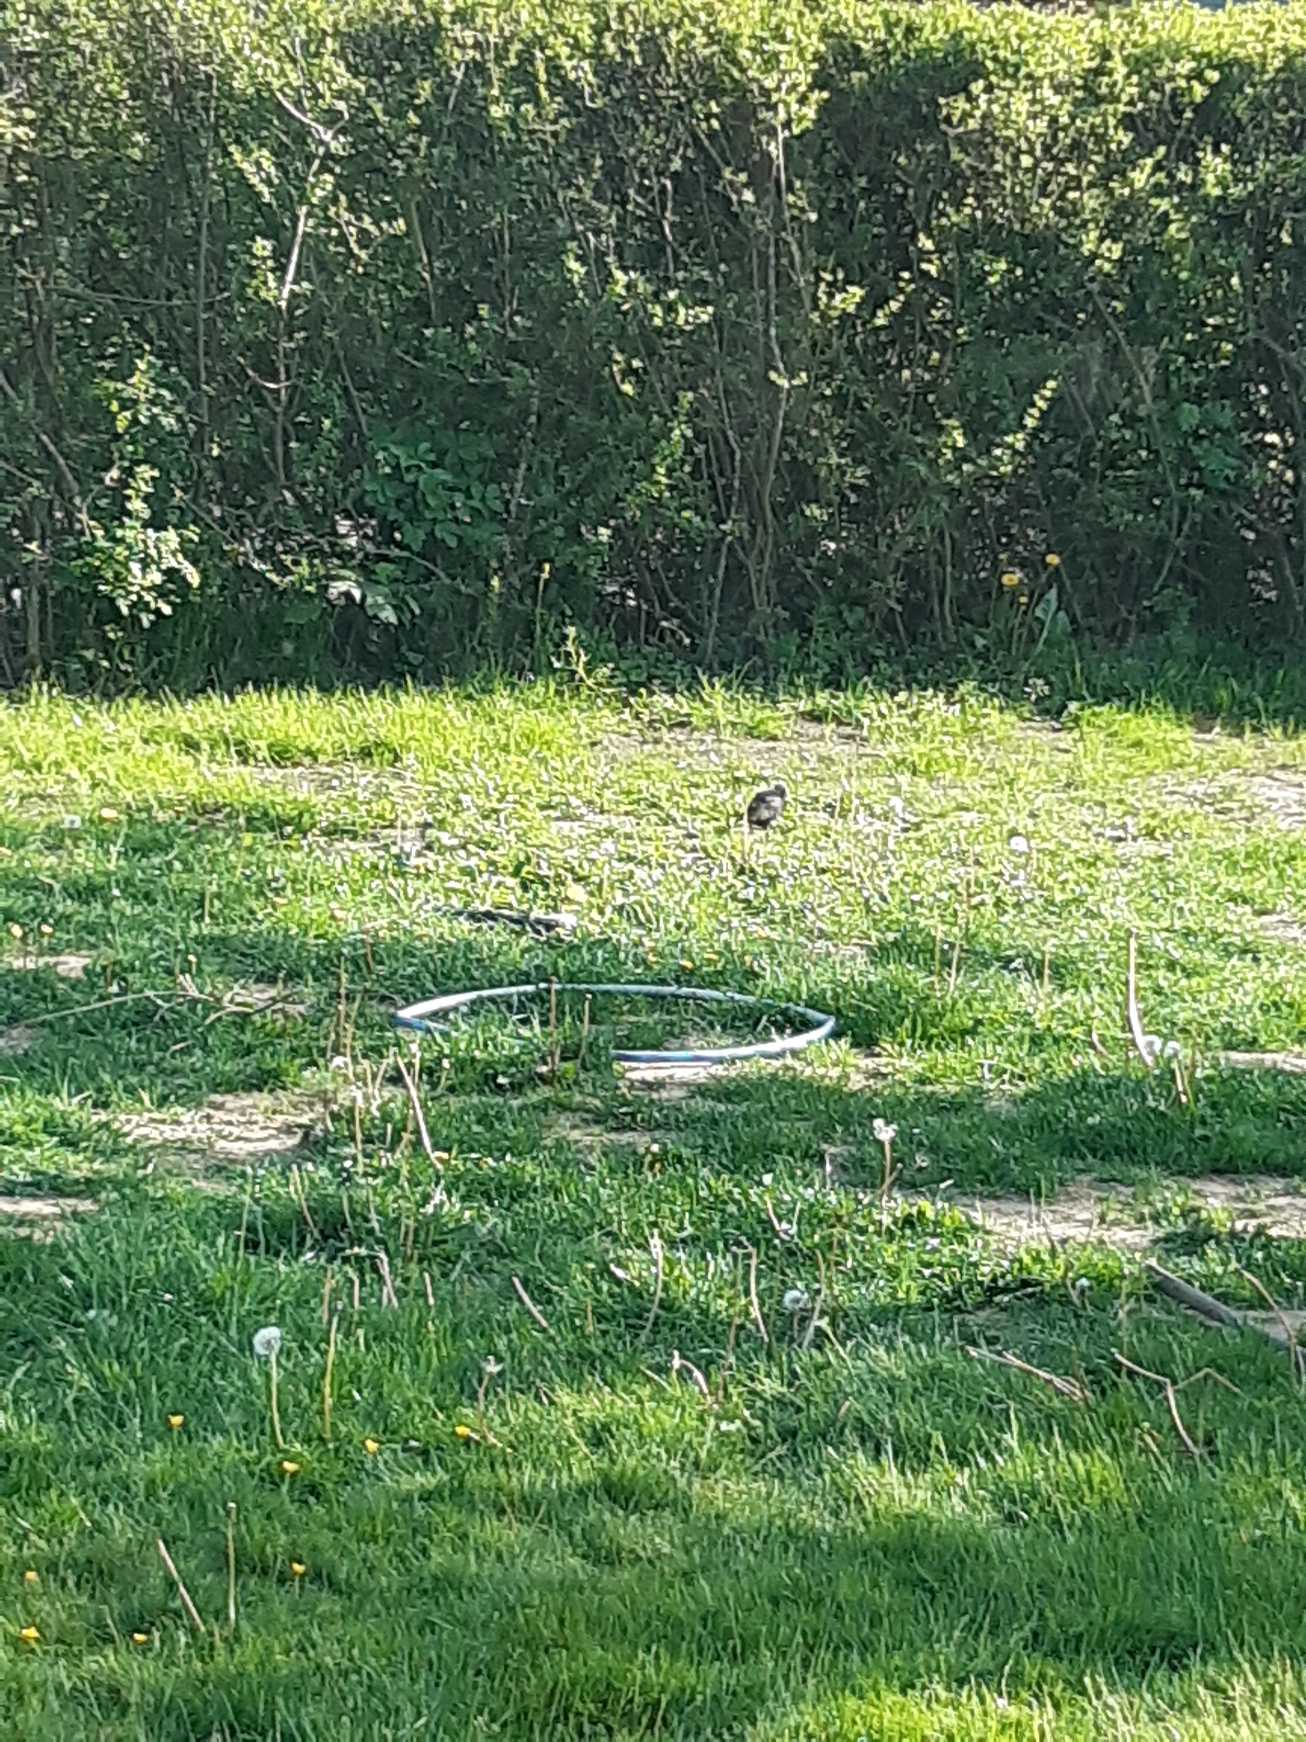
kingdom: Animalia
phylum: Chordata
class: Aves
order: Passeriformes
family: Sturnidae
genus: Sturnus
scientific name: Sturnus vulgaris
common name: Stær
